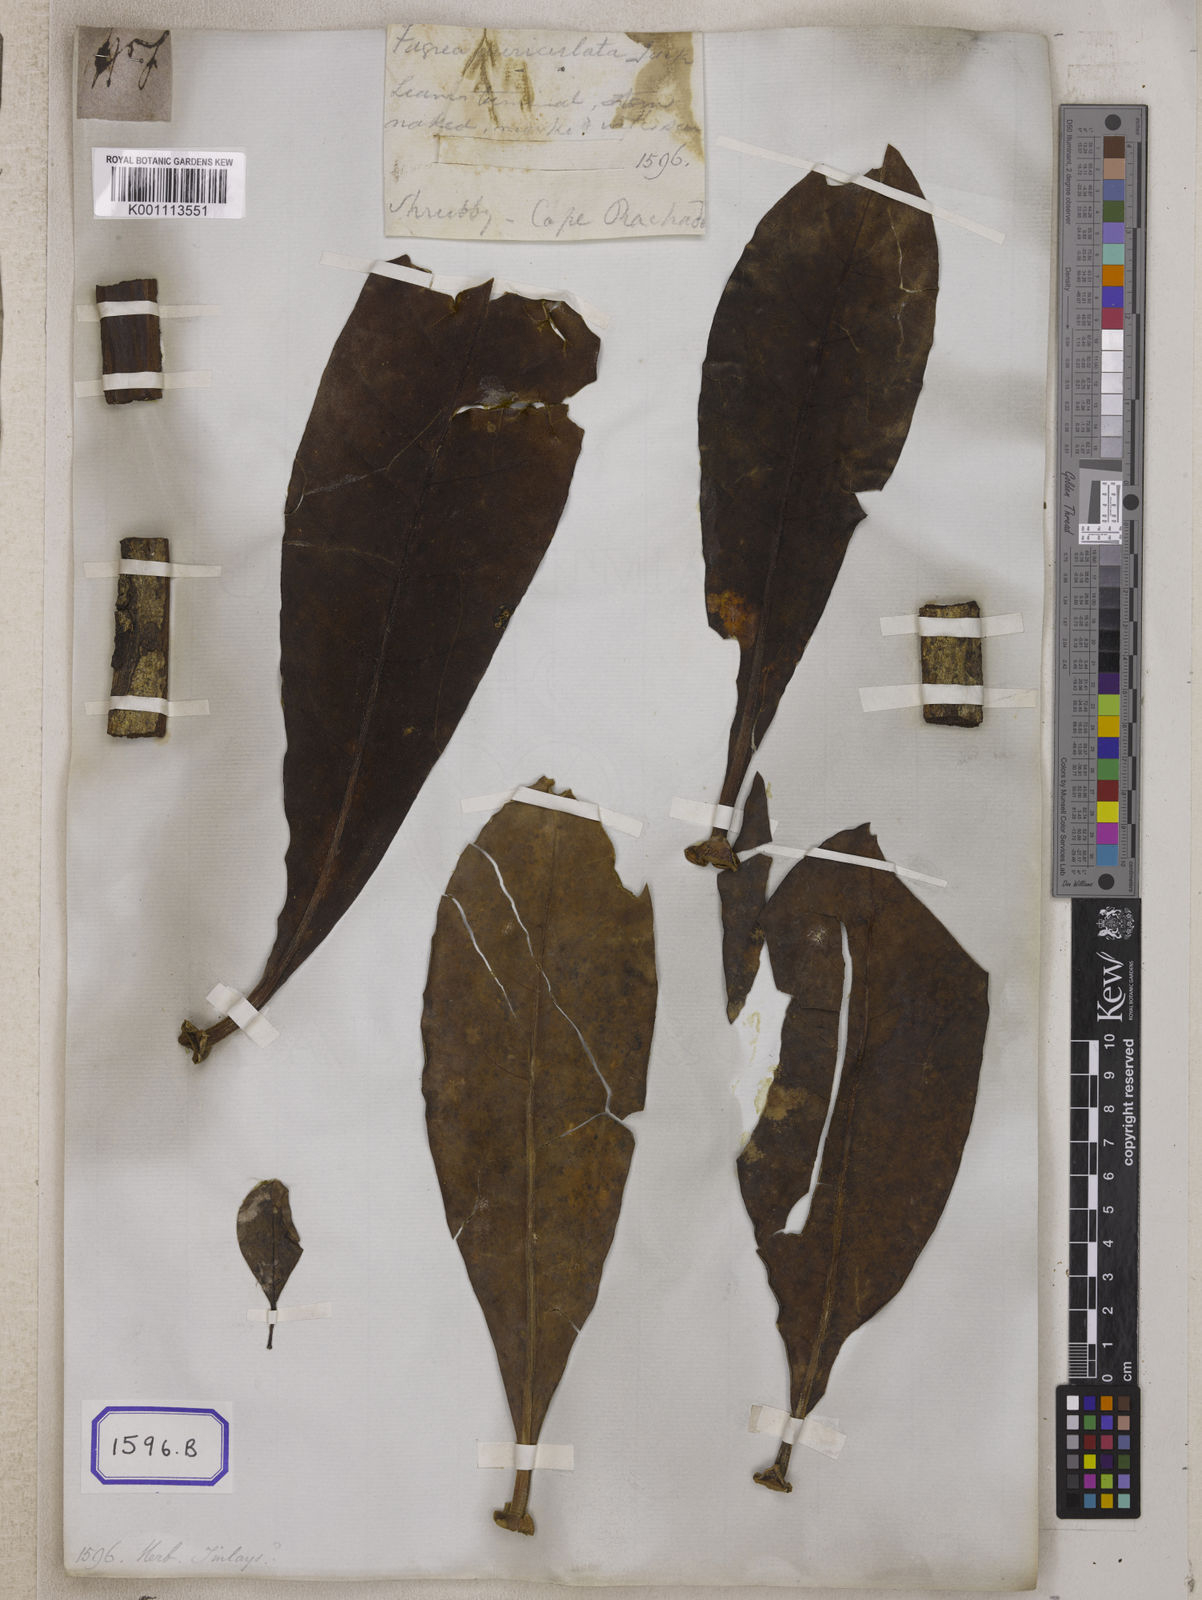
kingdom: Plantae
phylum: Tracheophyta
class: Magnoliopsida
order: Gentianales
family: Gentianaceae
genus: Fagraea
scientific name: Fagraea
